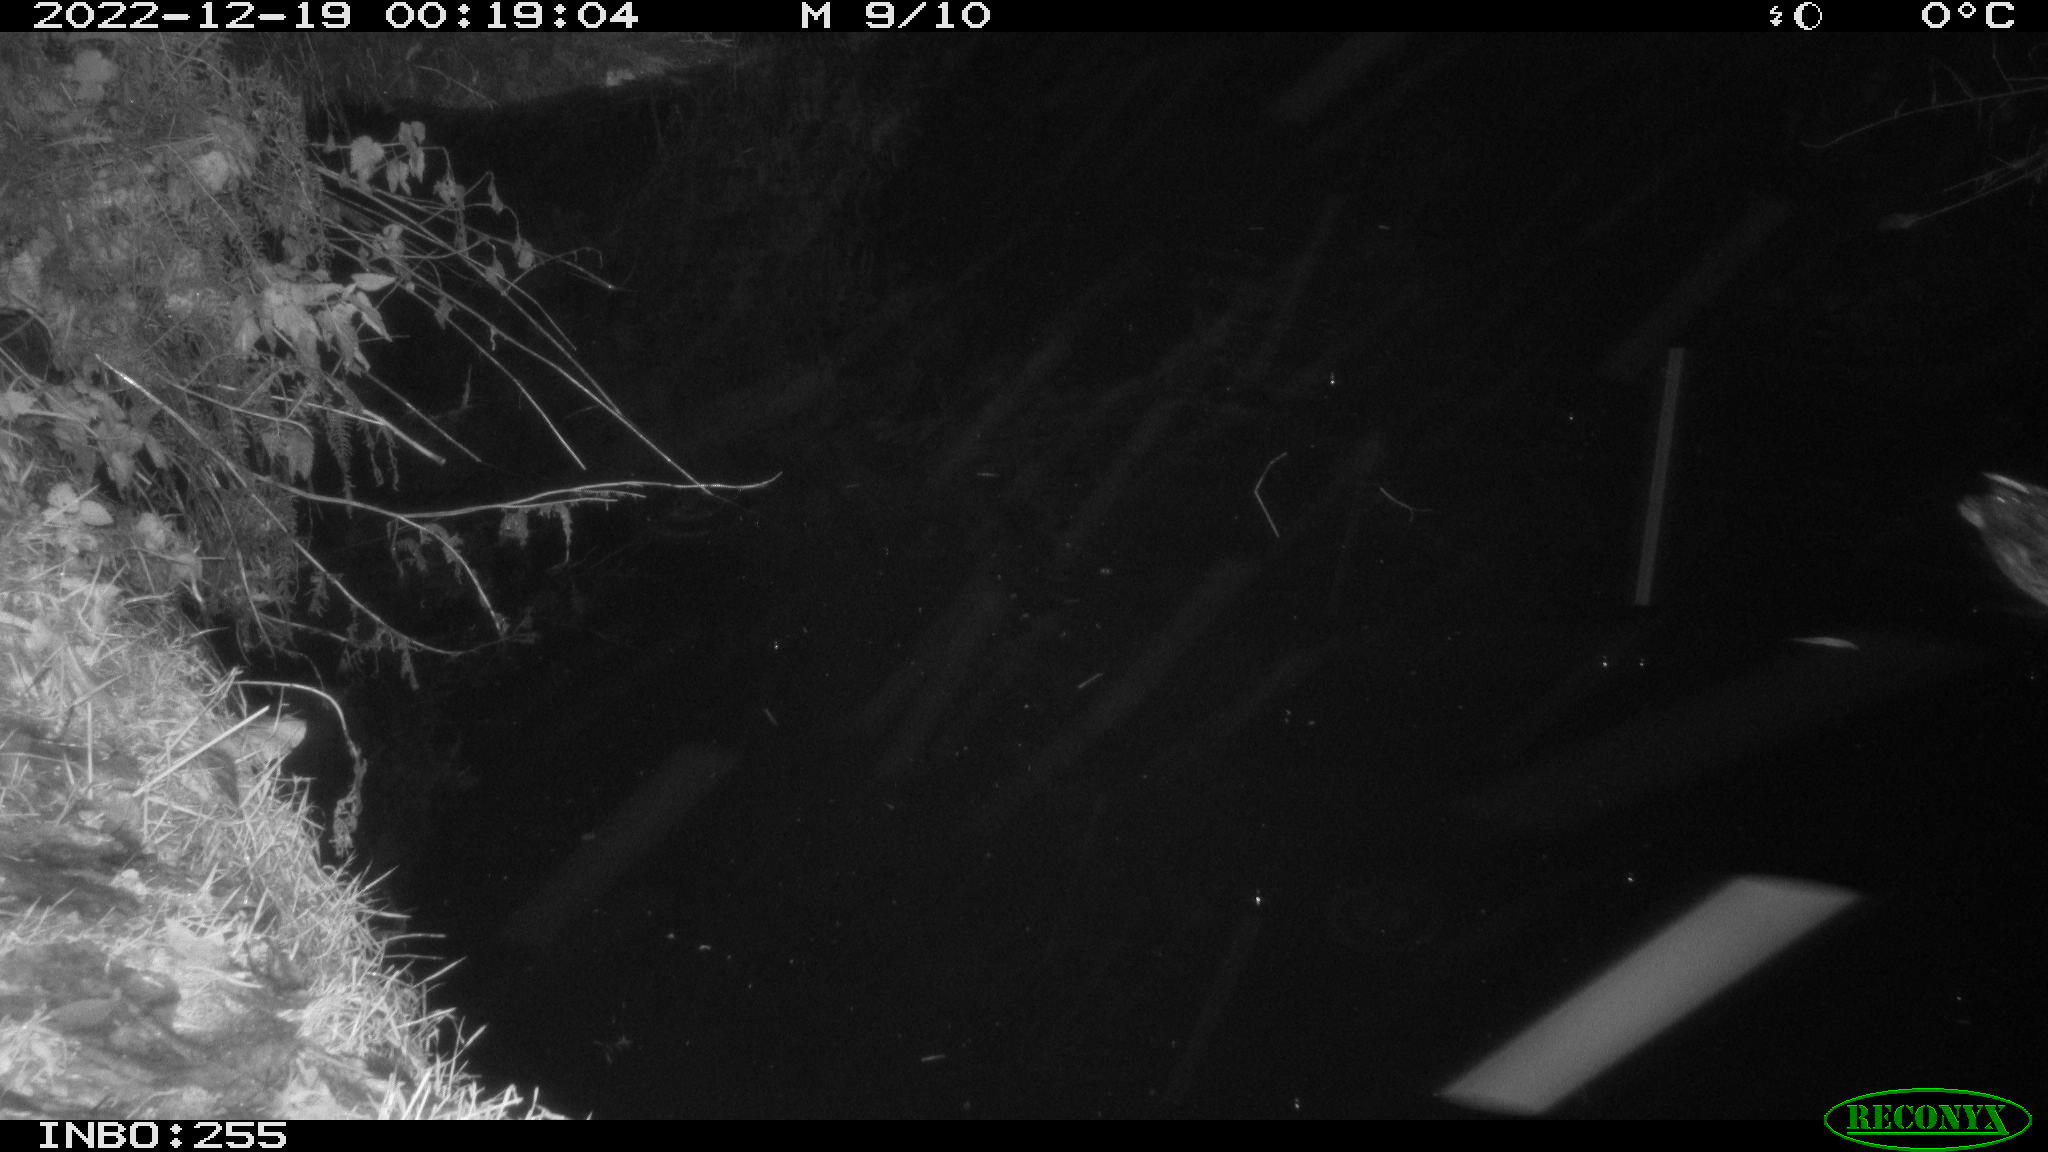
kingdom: Animalia
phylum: Chordata
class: Aves
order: Anseriformes
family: Anatidae
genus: Anas
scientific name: Anas platyrhynchos
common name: Mallard
